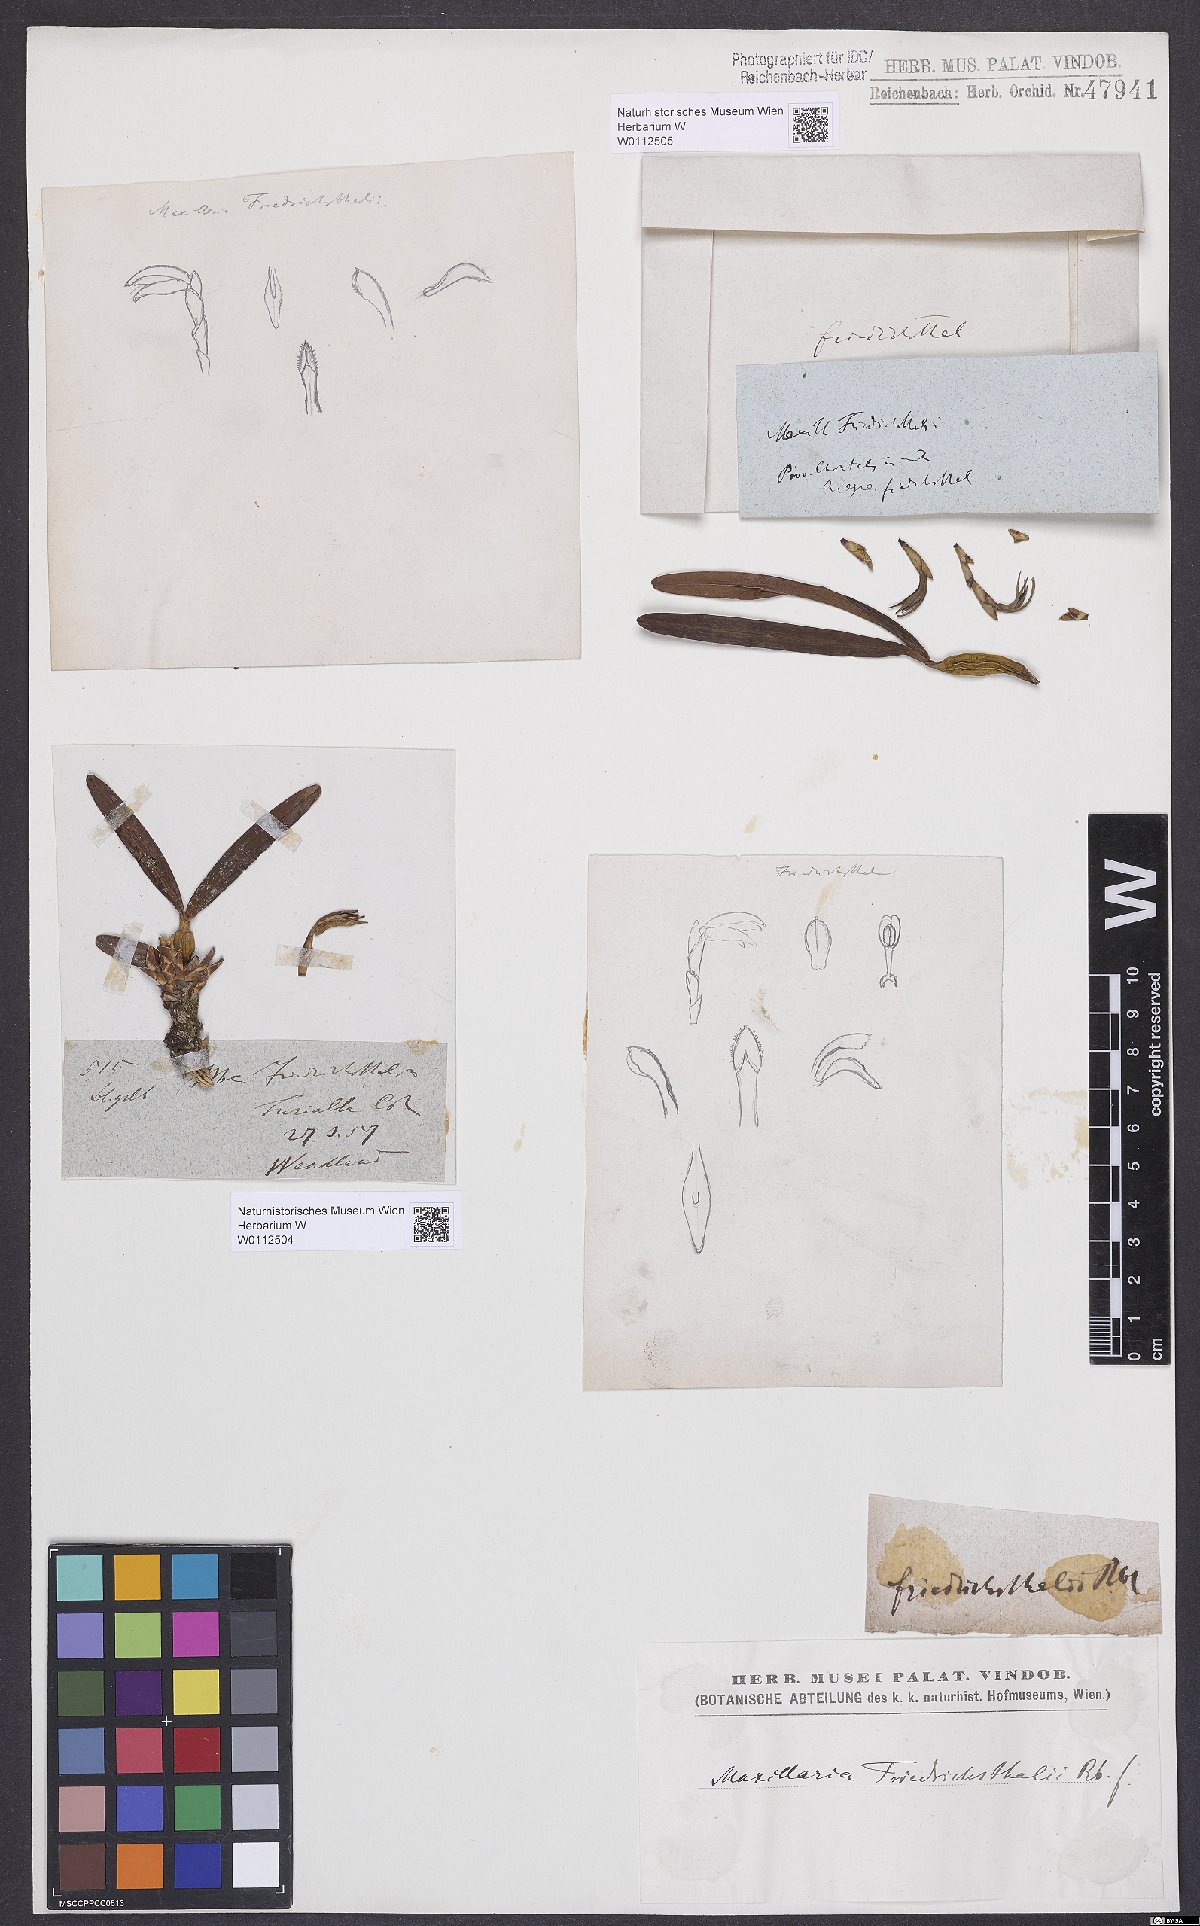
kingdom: Plantae
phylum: Tracheophyta
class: Liliopsida
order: Asparagales
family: Orchidaceae
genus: Maxillaria
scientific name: Maxillaria friedrichsthalii
